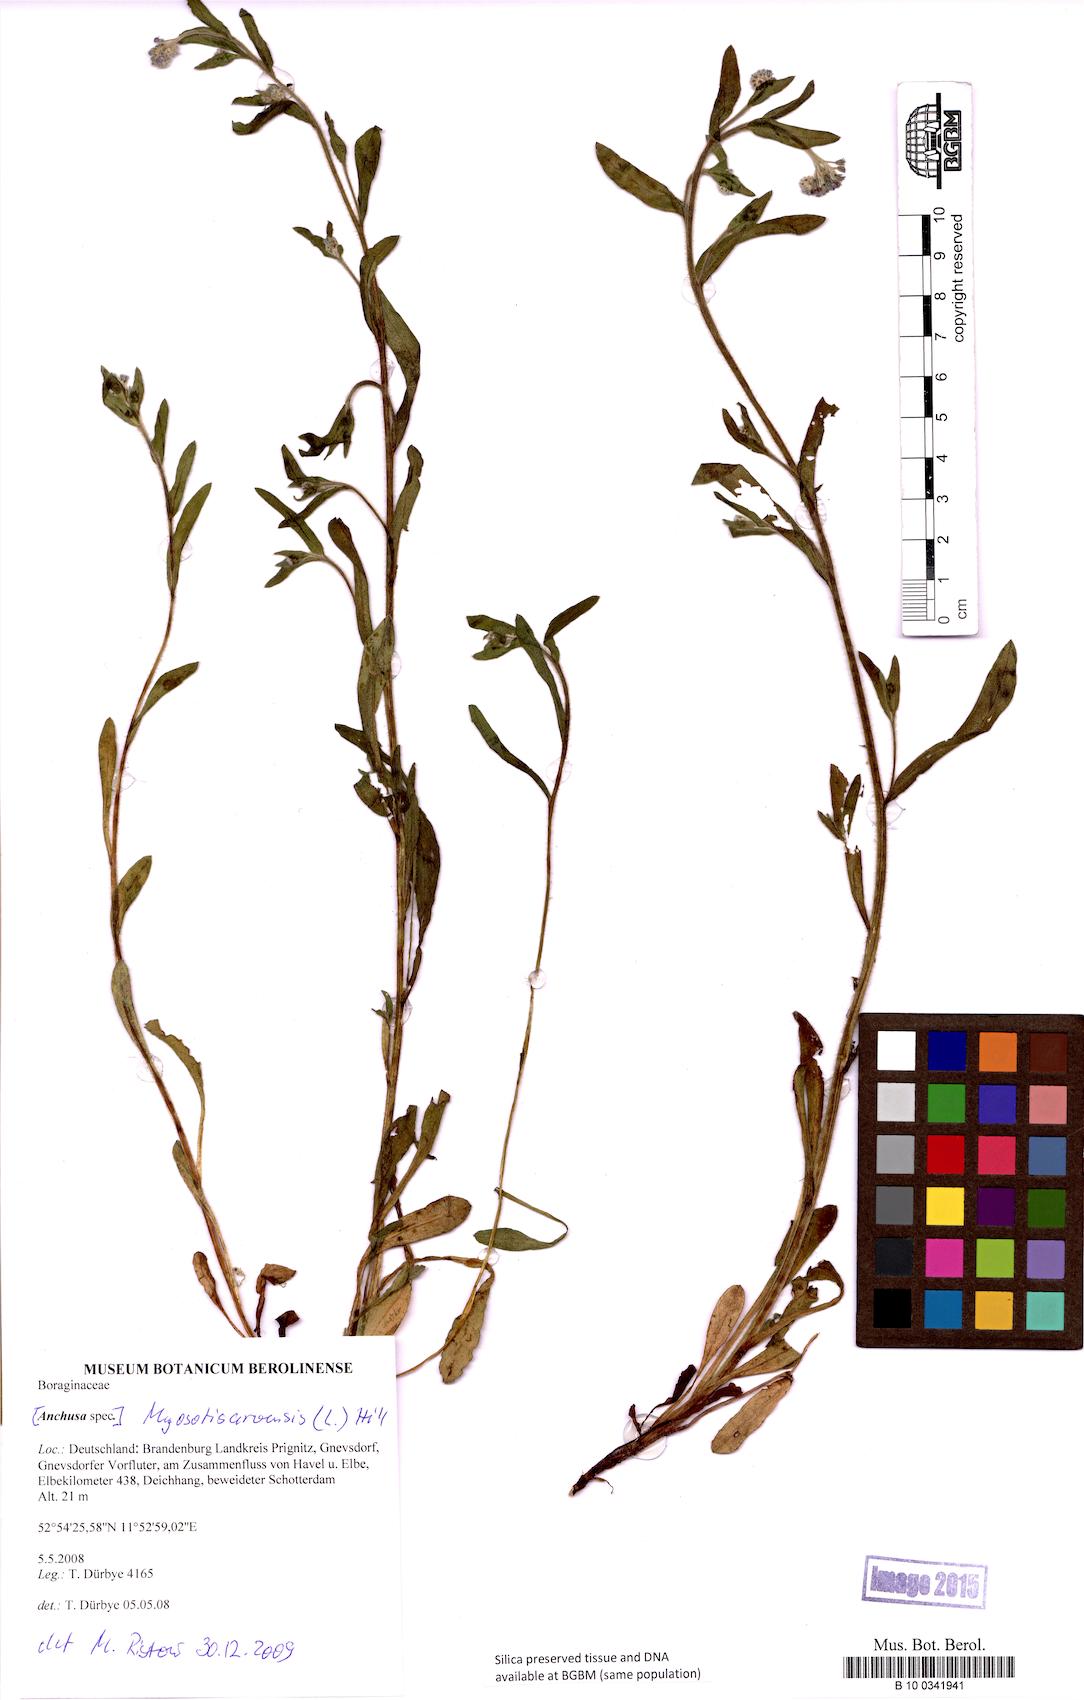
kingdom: Plantae
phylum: Tracheophyta
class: Magnoliopsida
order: Boraginales
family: Boraginaceae
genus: Myosotis
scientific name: Myosotis arvensis
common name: Field forget-me-not
